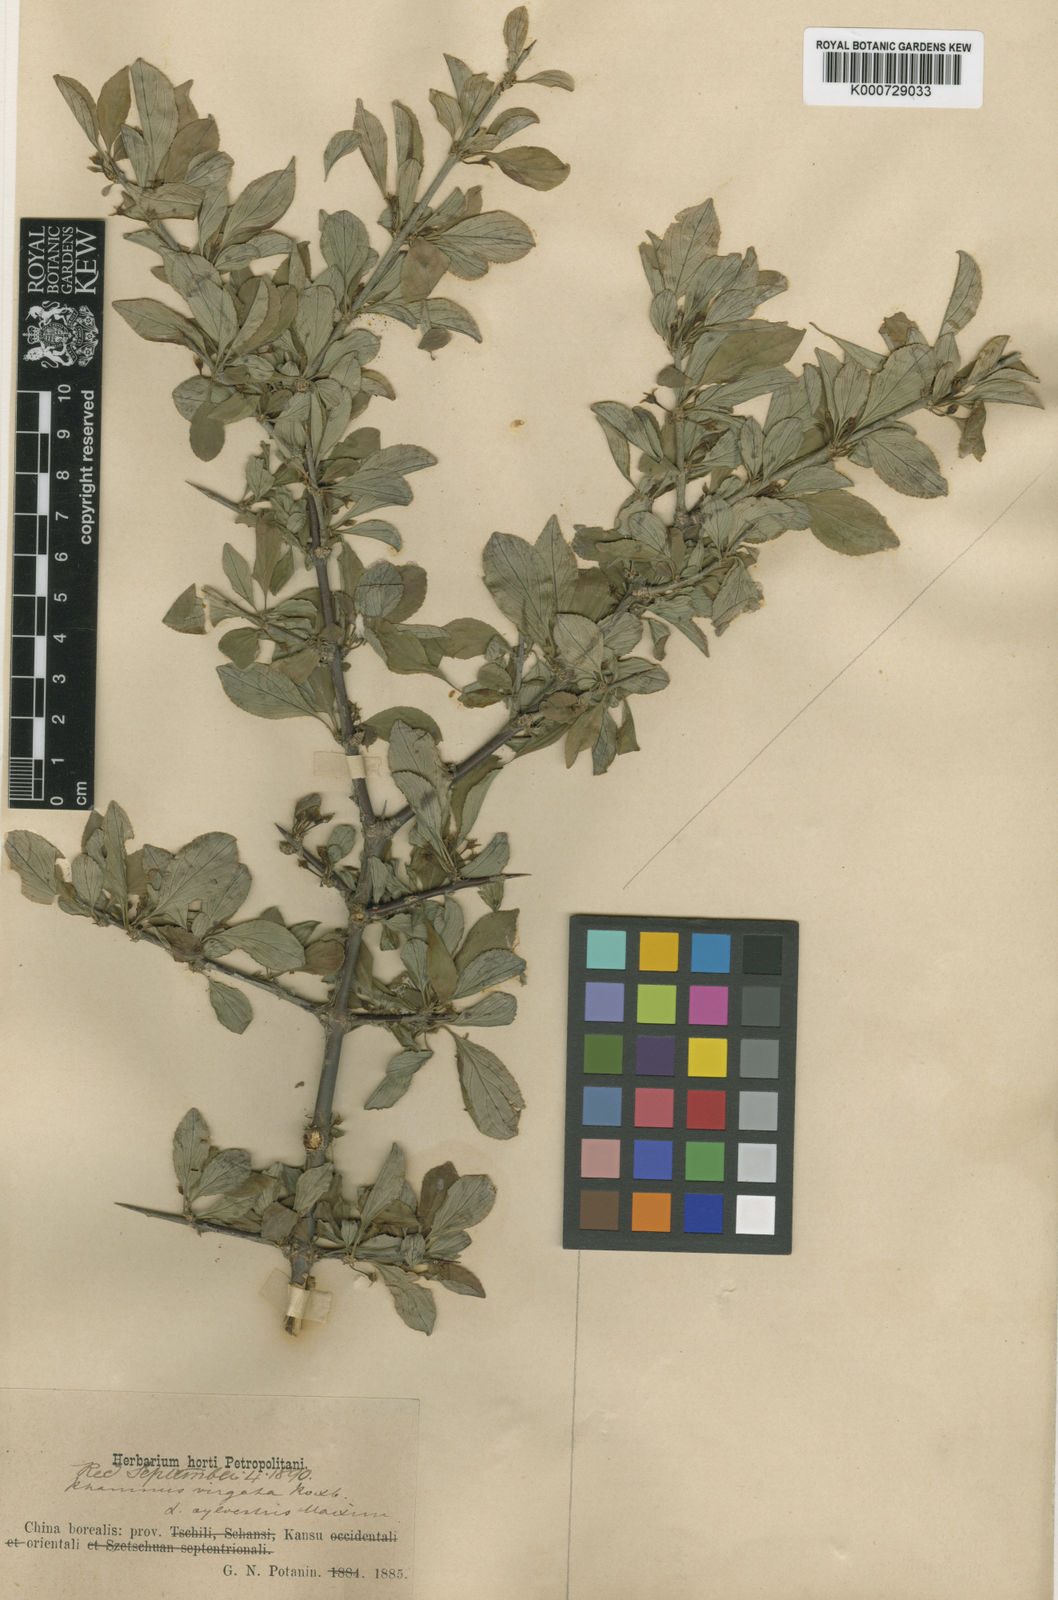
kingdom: Plantae
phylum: Tracheophyta
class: Magnoliopsida
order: Rosales
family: Rhamnaceae
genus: Rhamnus
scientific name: Rhamnus virgata
